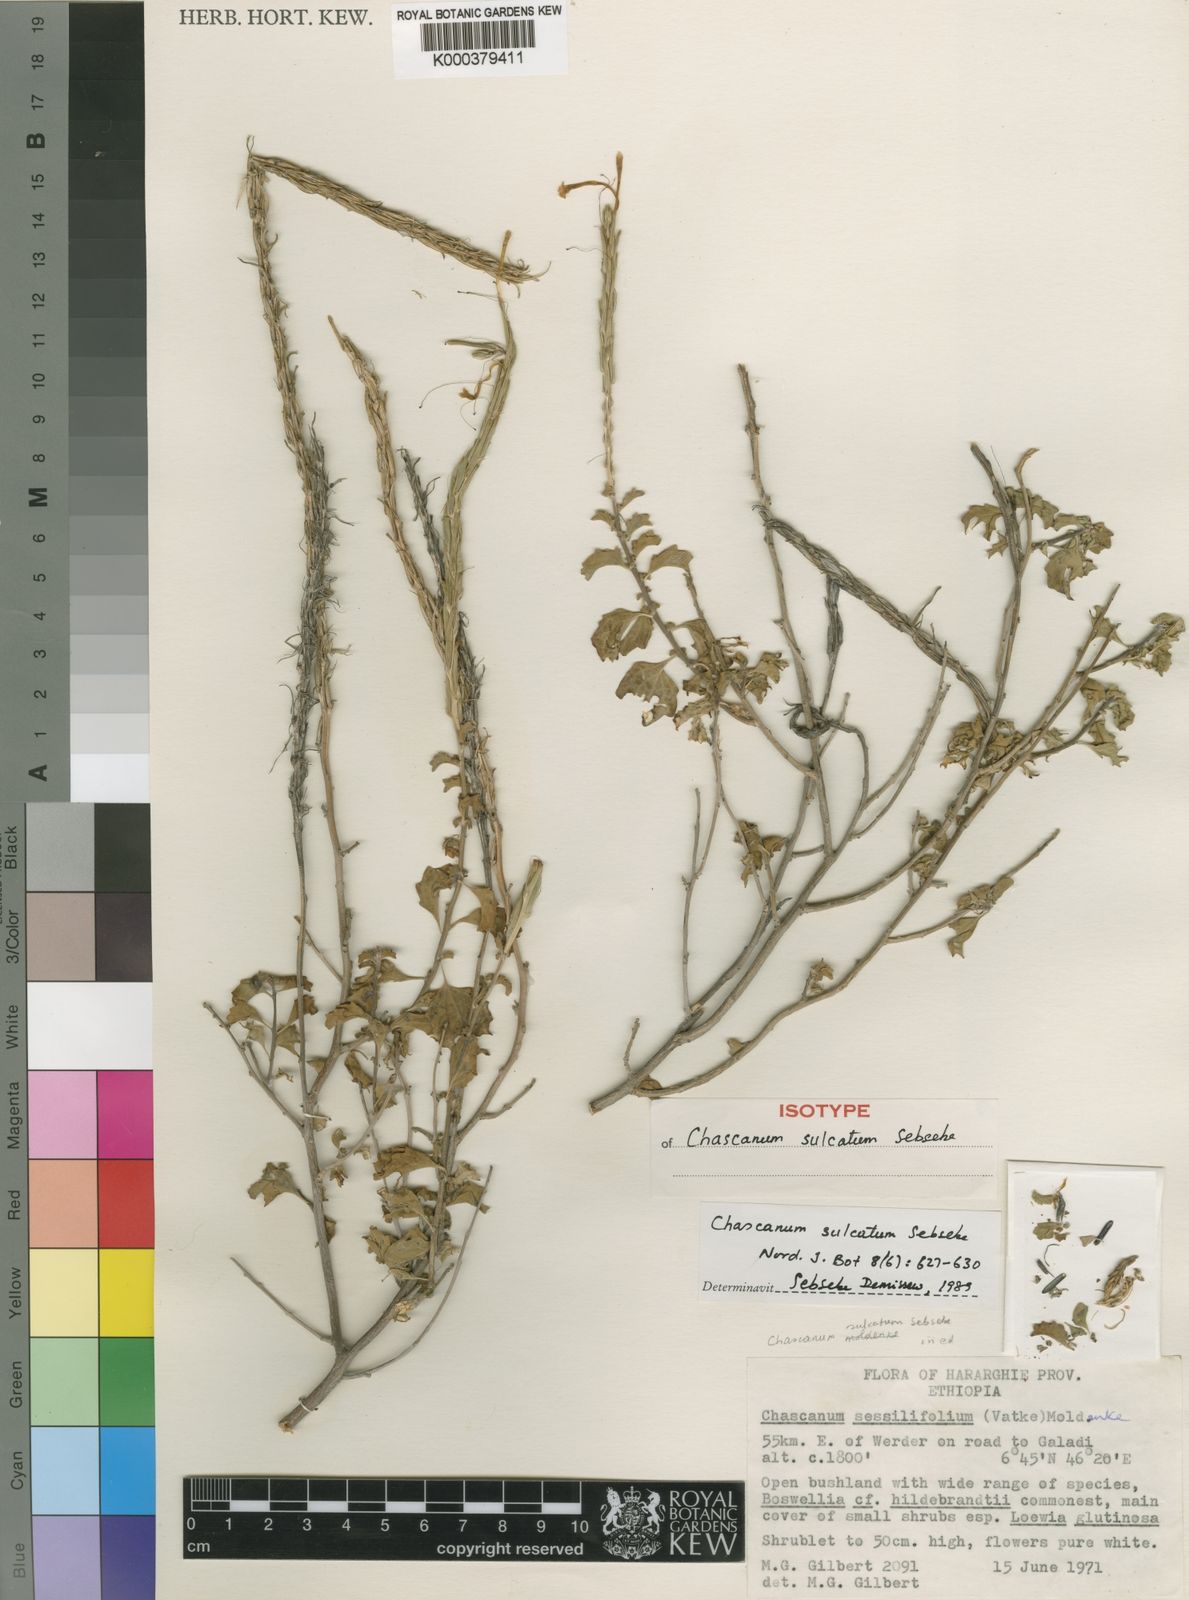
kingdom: Plantae
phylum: Tracheophyta
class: Magnoliopsida
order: Lamiales
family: Verbenaceae
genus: Chascanum
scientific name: Chascanum sulcatum
